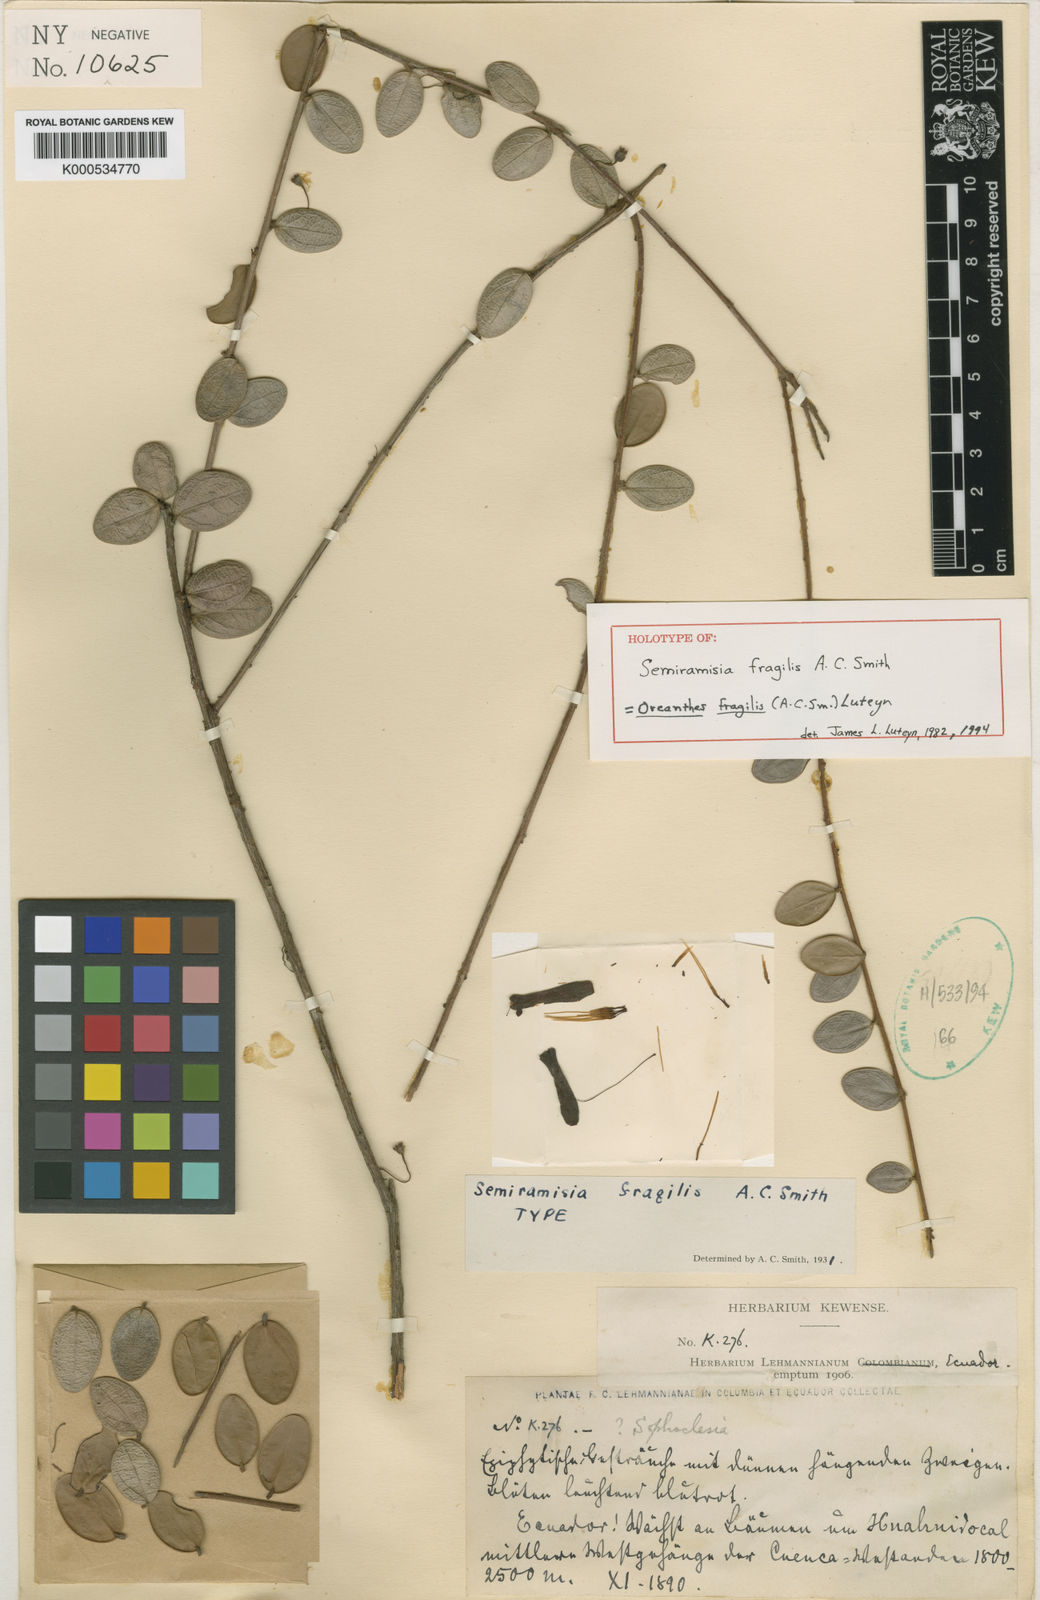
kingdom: Plantae
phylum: Tracheophyta
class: Magnoliopsida
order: Ericales
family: Ericaceae
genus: Oreanthes
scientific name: Oreanthes fragilis
